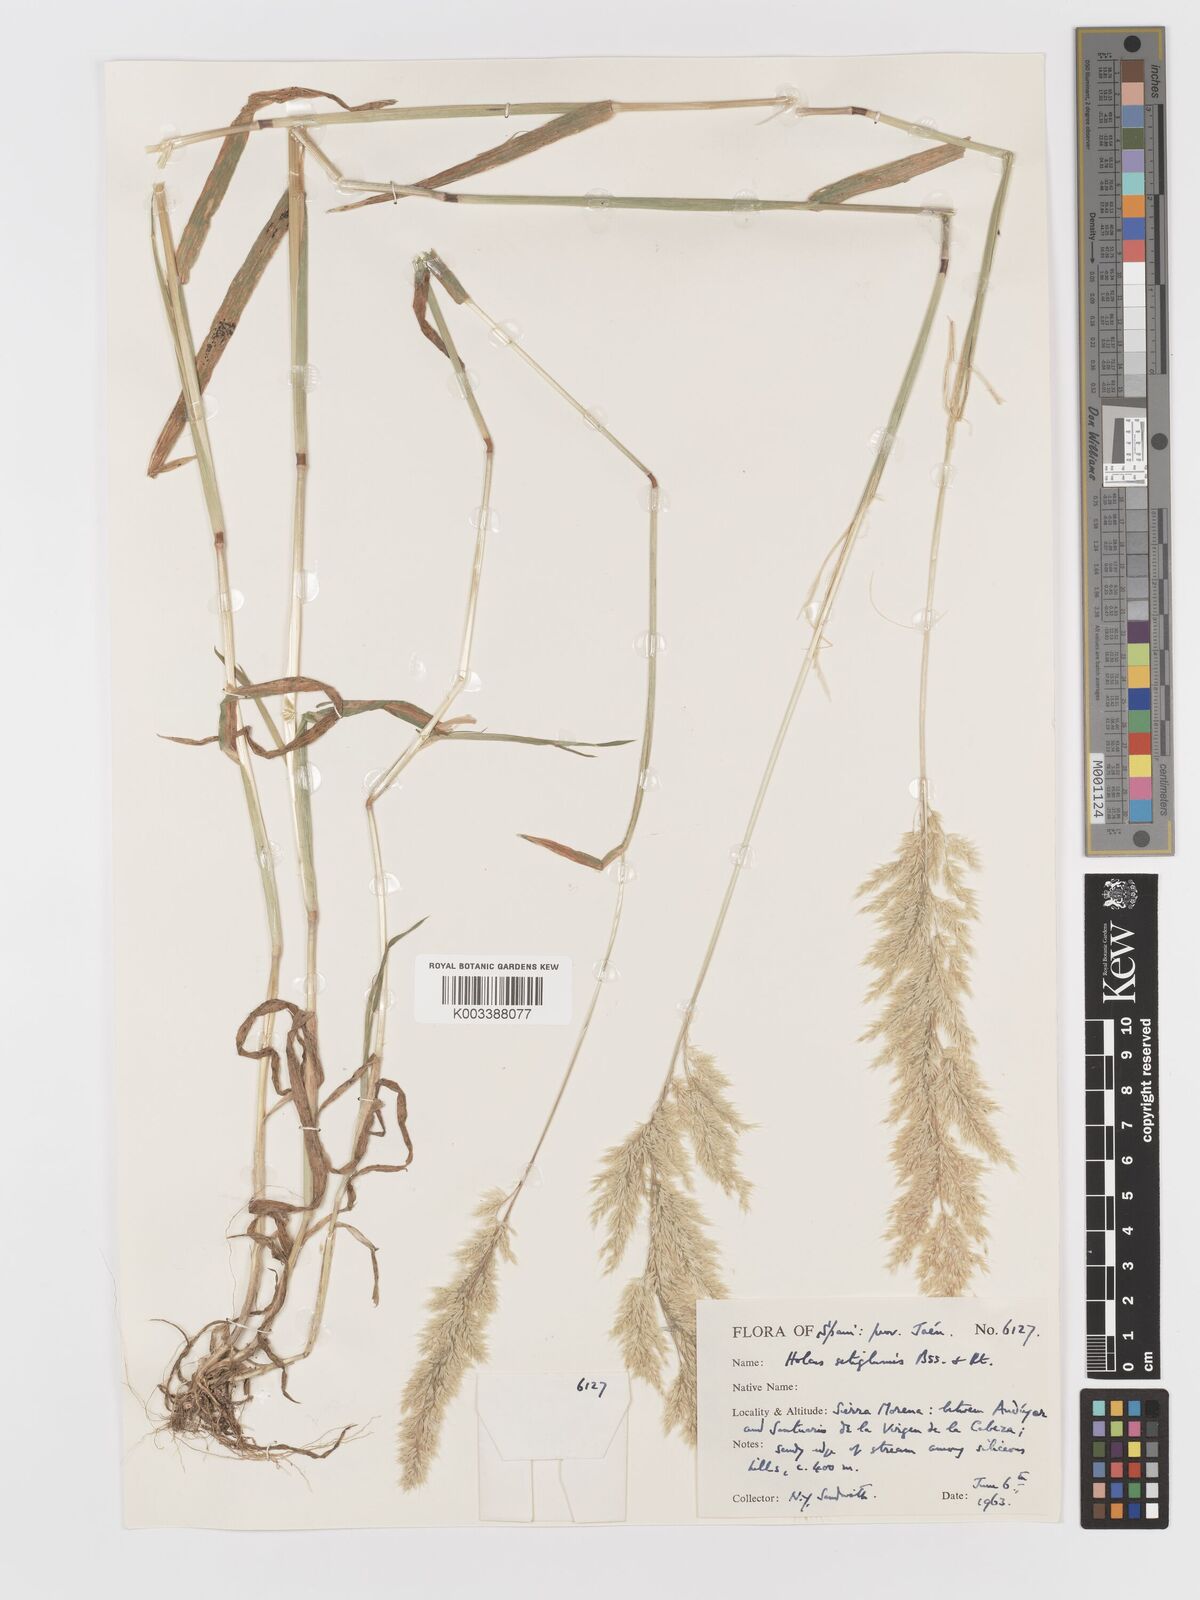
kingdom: Plantae
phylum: Tracheophyta
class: Liliopsida
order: Poales
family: Poaceae
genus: Holcus
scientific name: Holcus annuus
